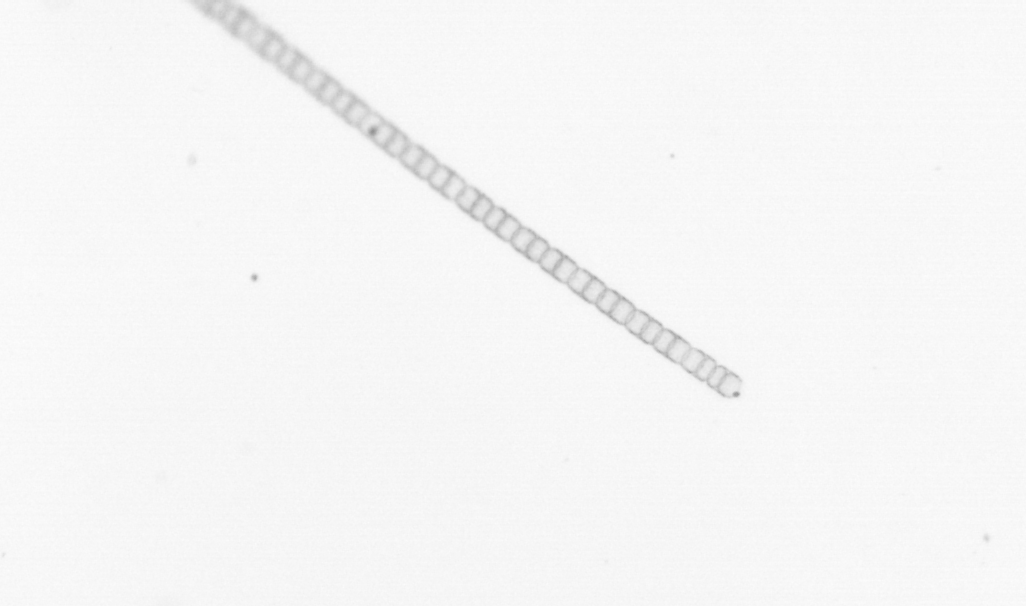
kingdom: Chromista
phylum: Ochrophyta
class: Bacillariophyceae
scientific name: Bacillariophyceae
